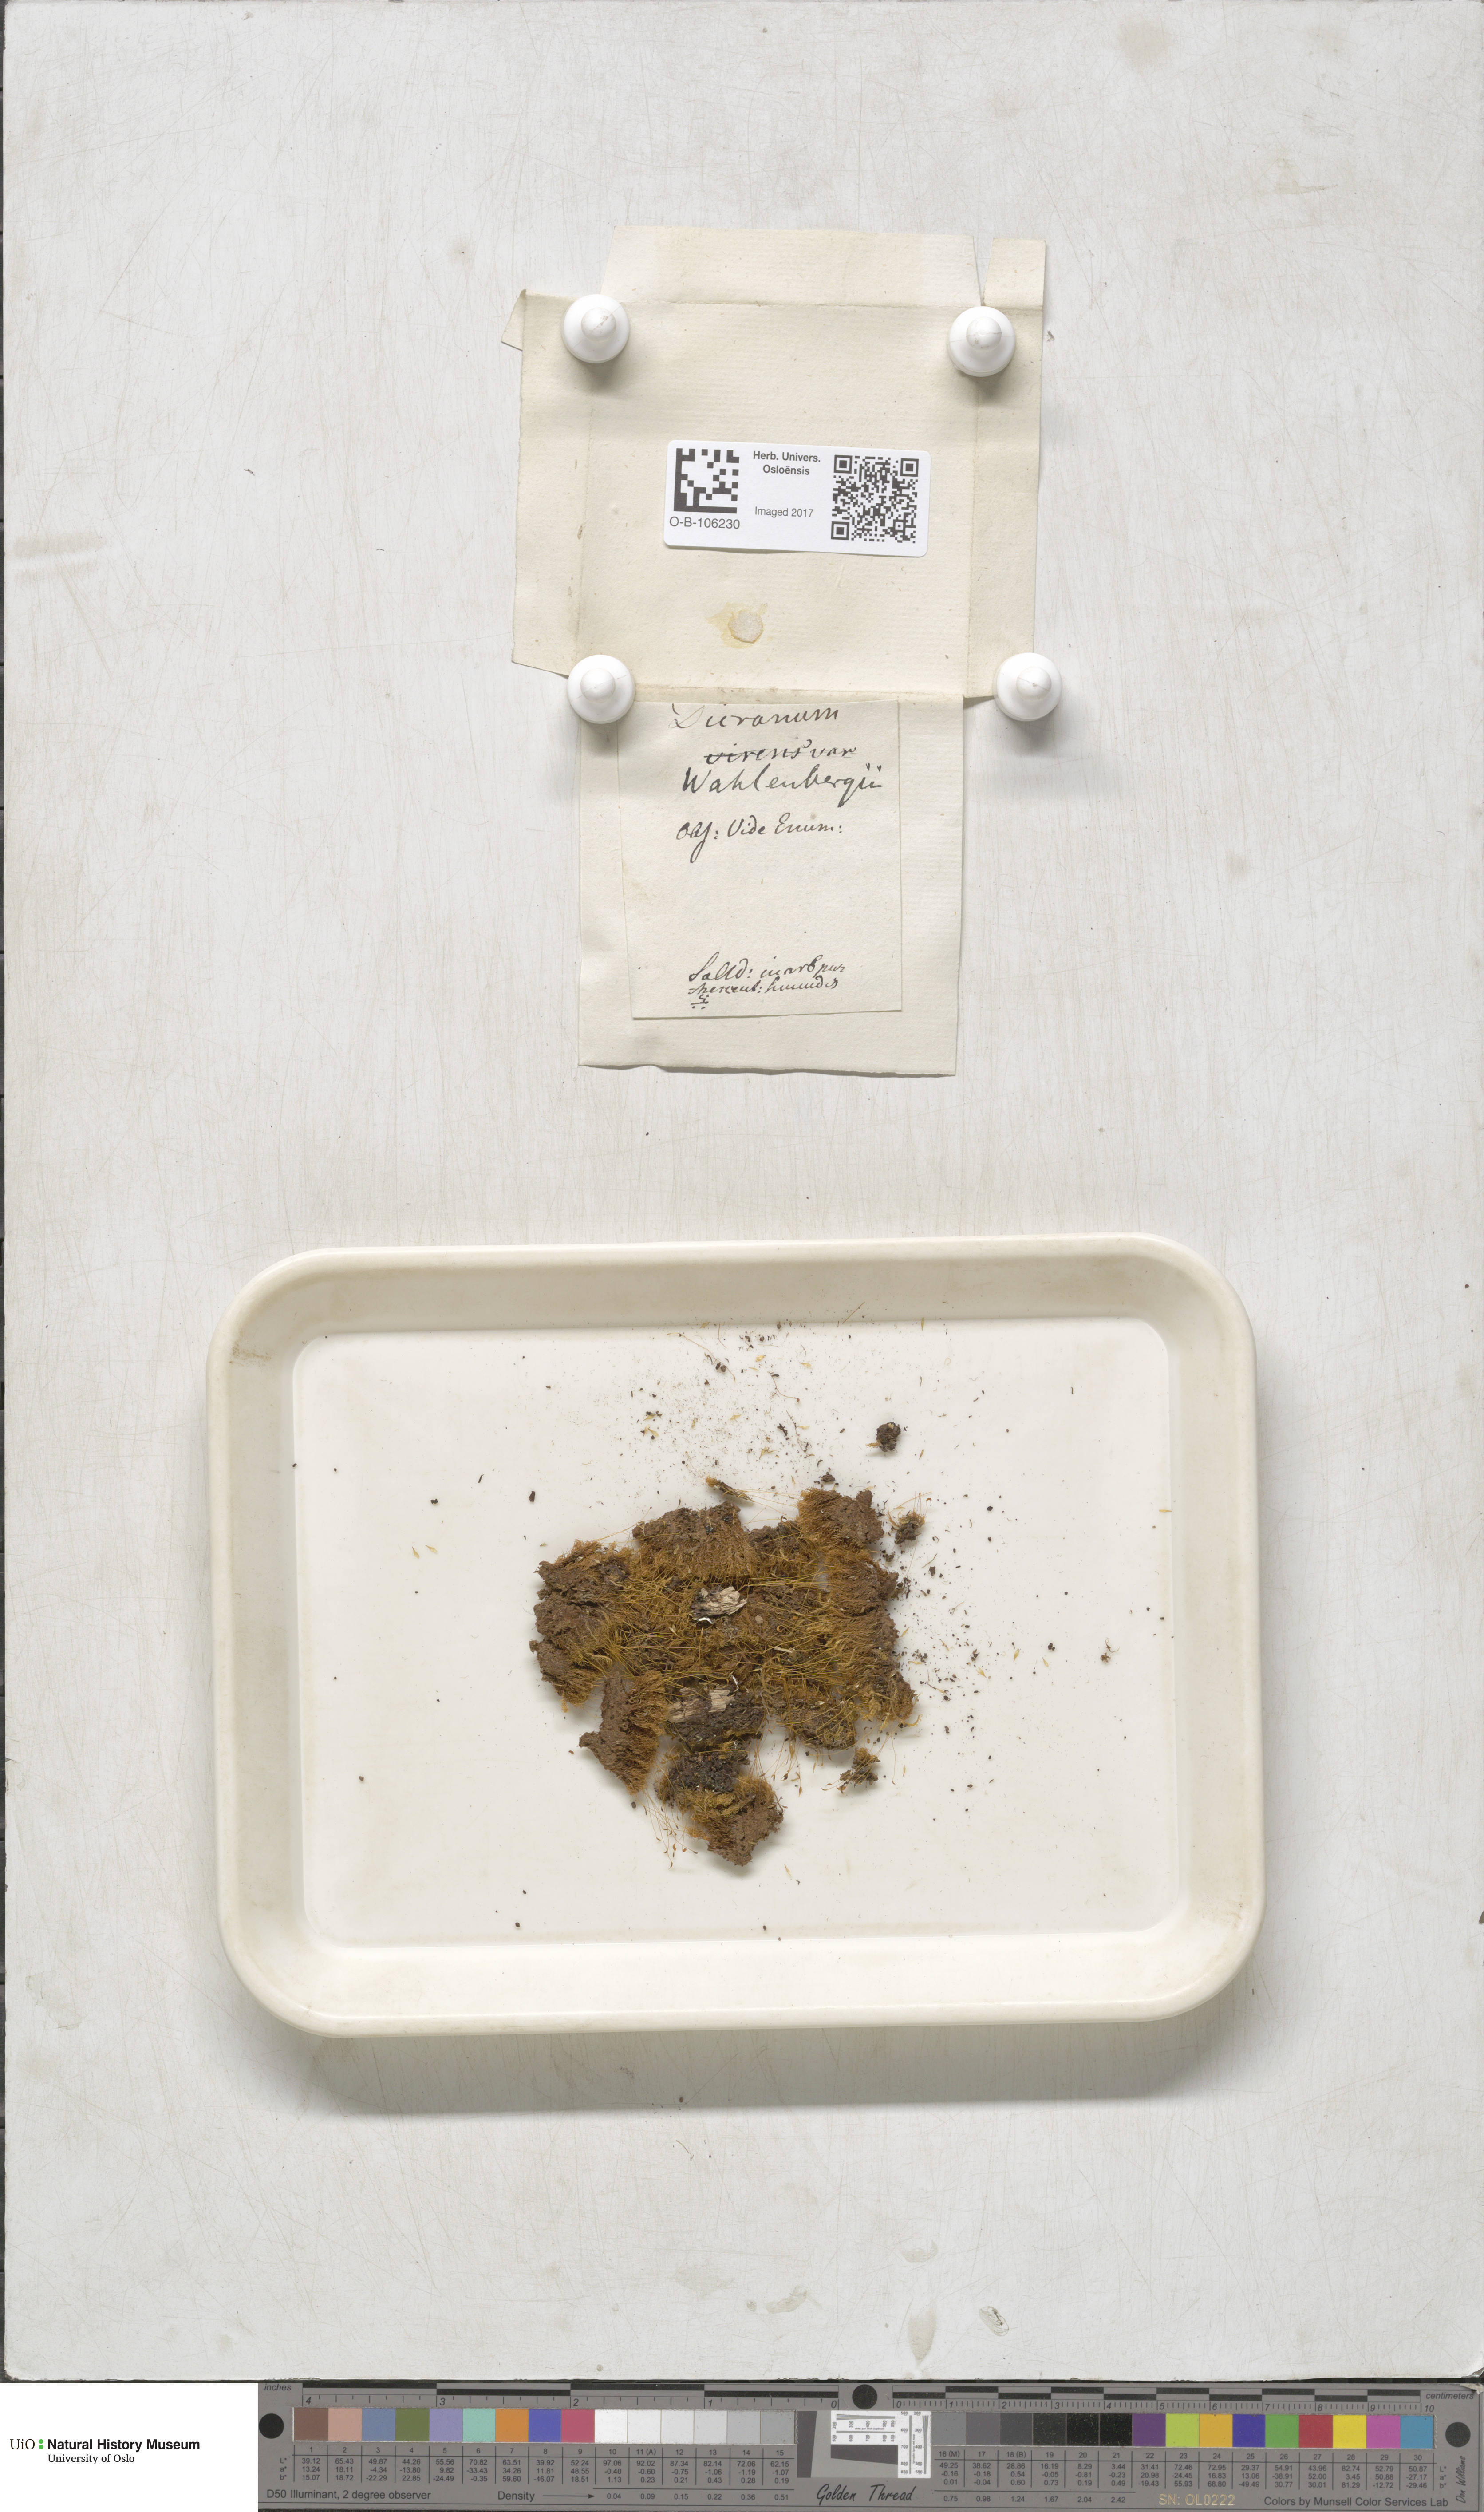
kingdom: Plantae
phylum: Bryophyta
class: Bryopsida
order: Dicranales
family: Rhabdoweisiaceae
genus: Brideliella
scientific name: Brideliella wahlenbergii
